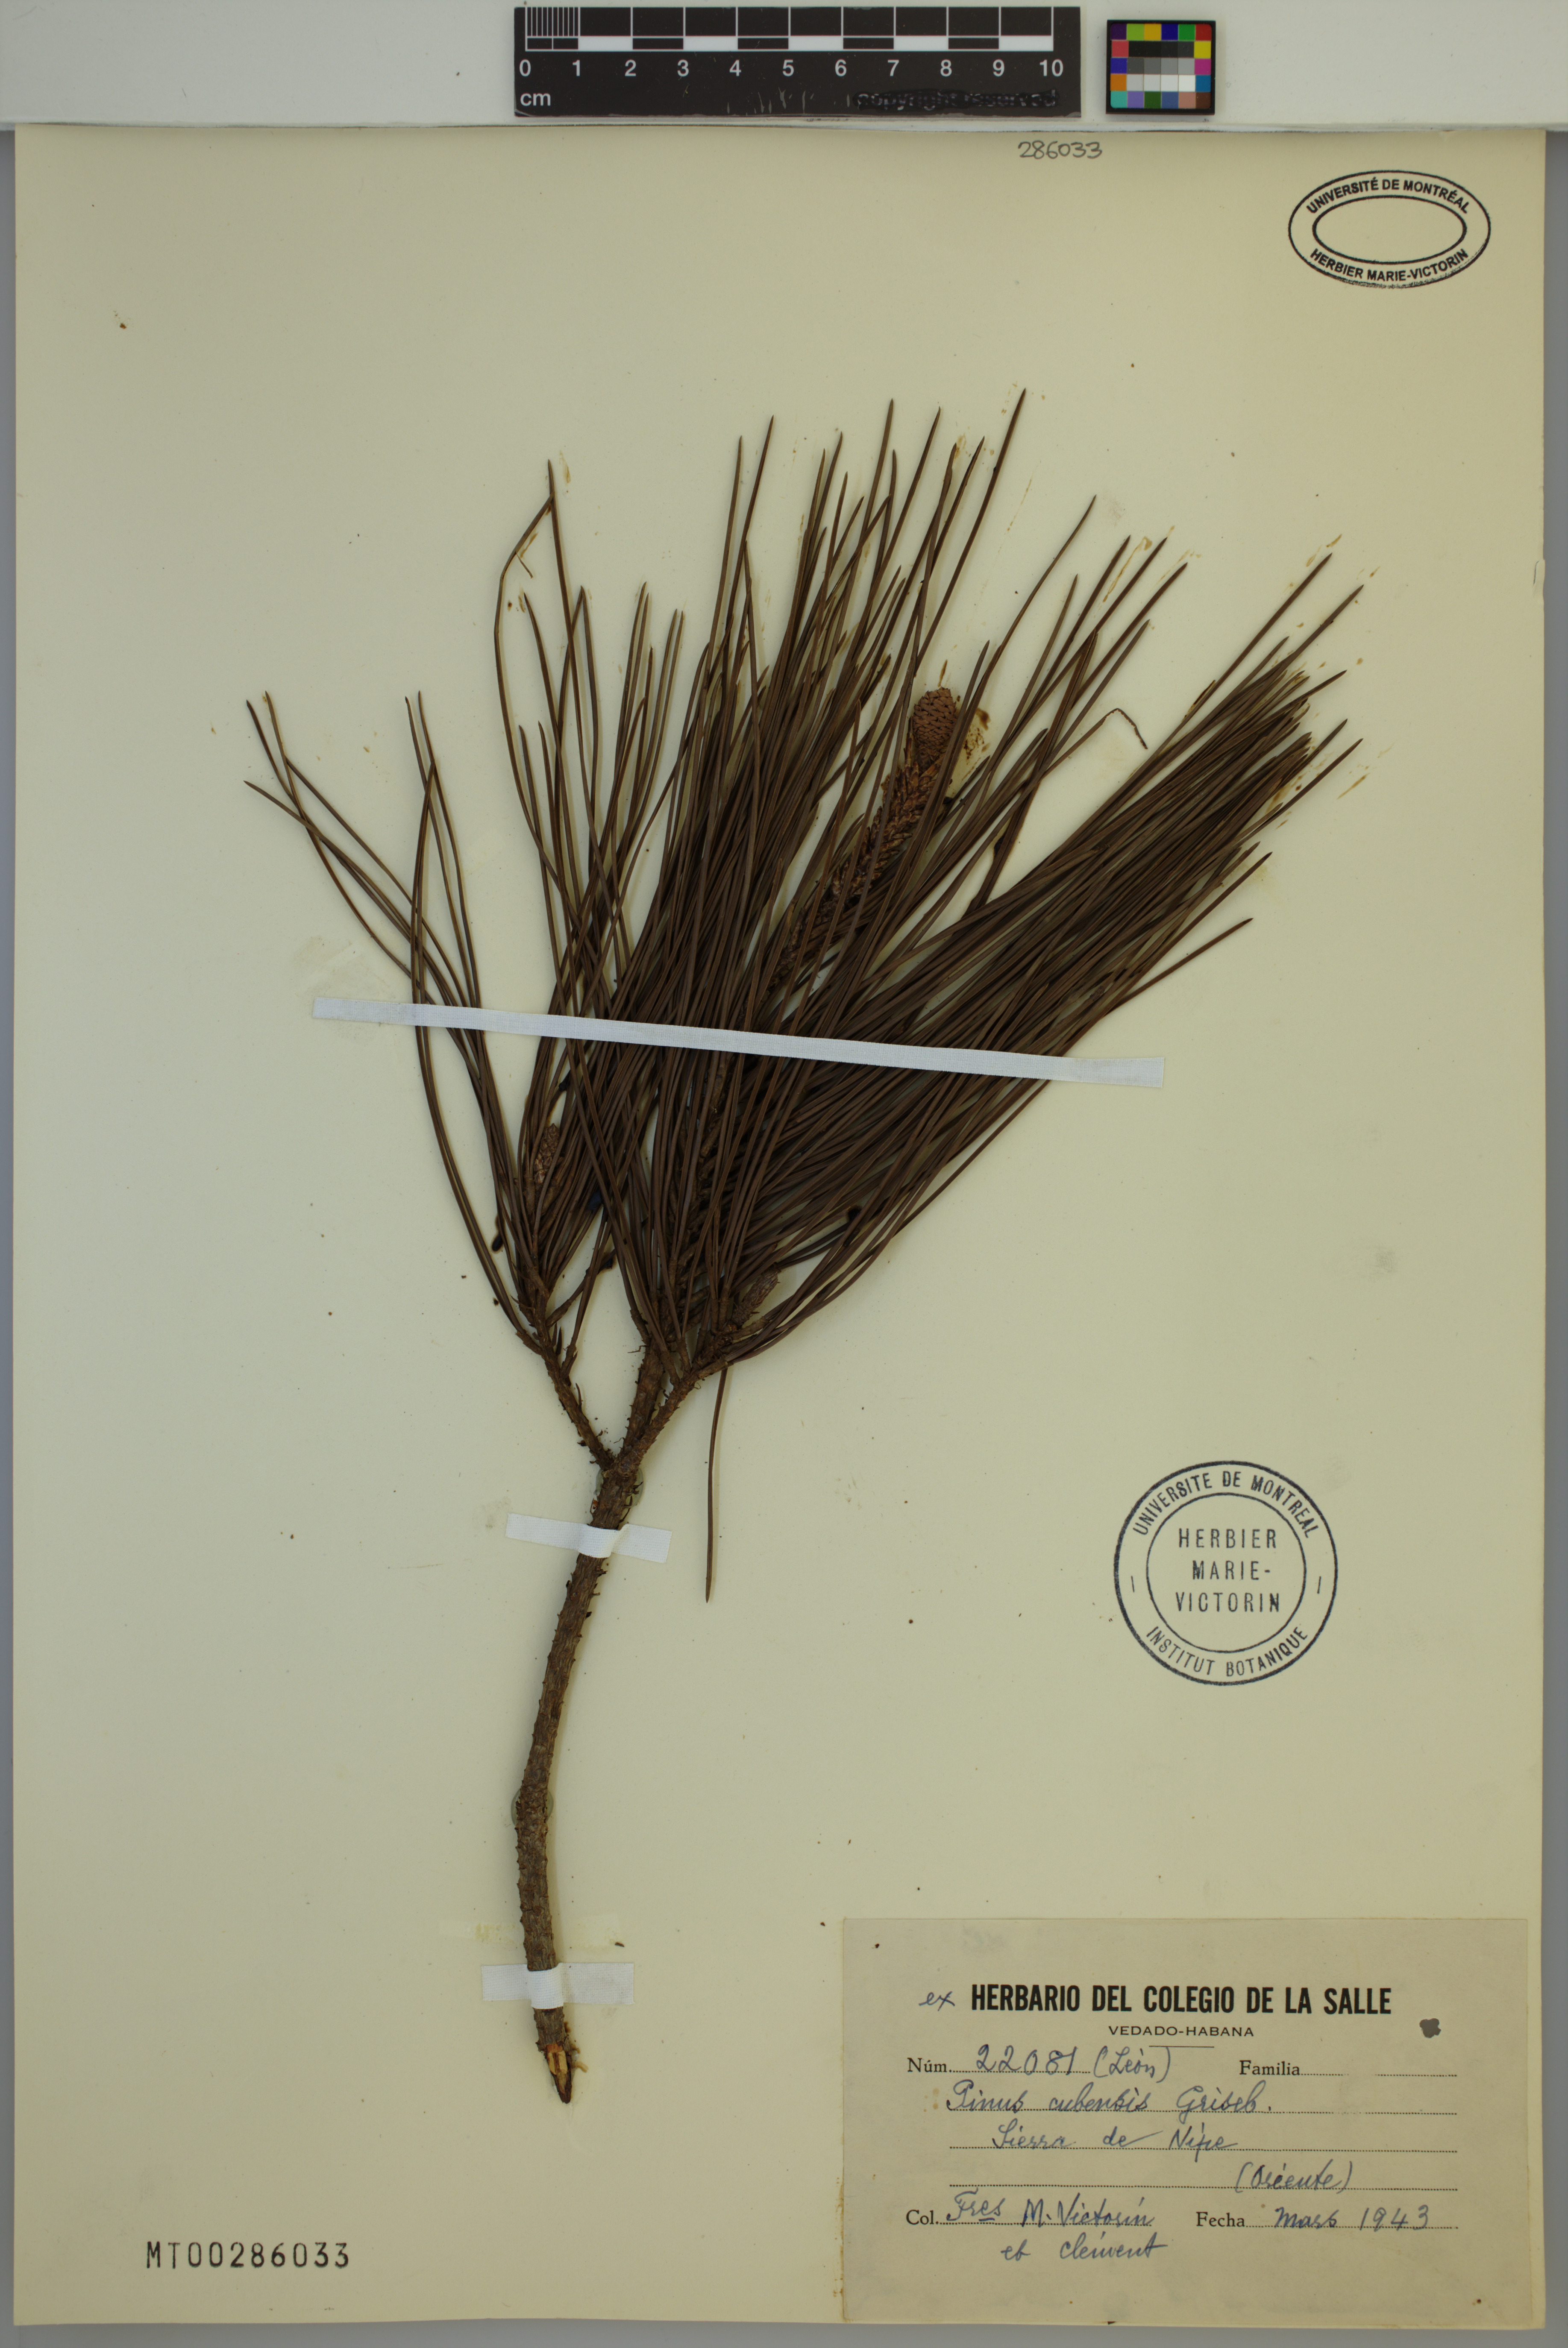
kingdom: Plantae
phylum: Tracheophyta
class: Pinopsida
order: Pinales
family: Pinaceae
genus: Pinus
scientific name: Pinus cubensis
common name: Cuban pine
